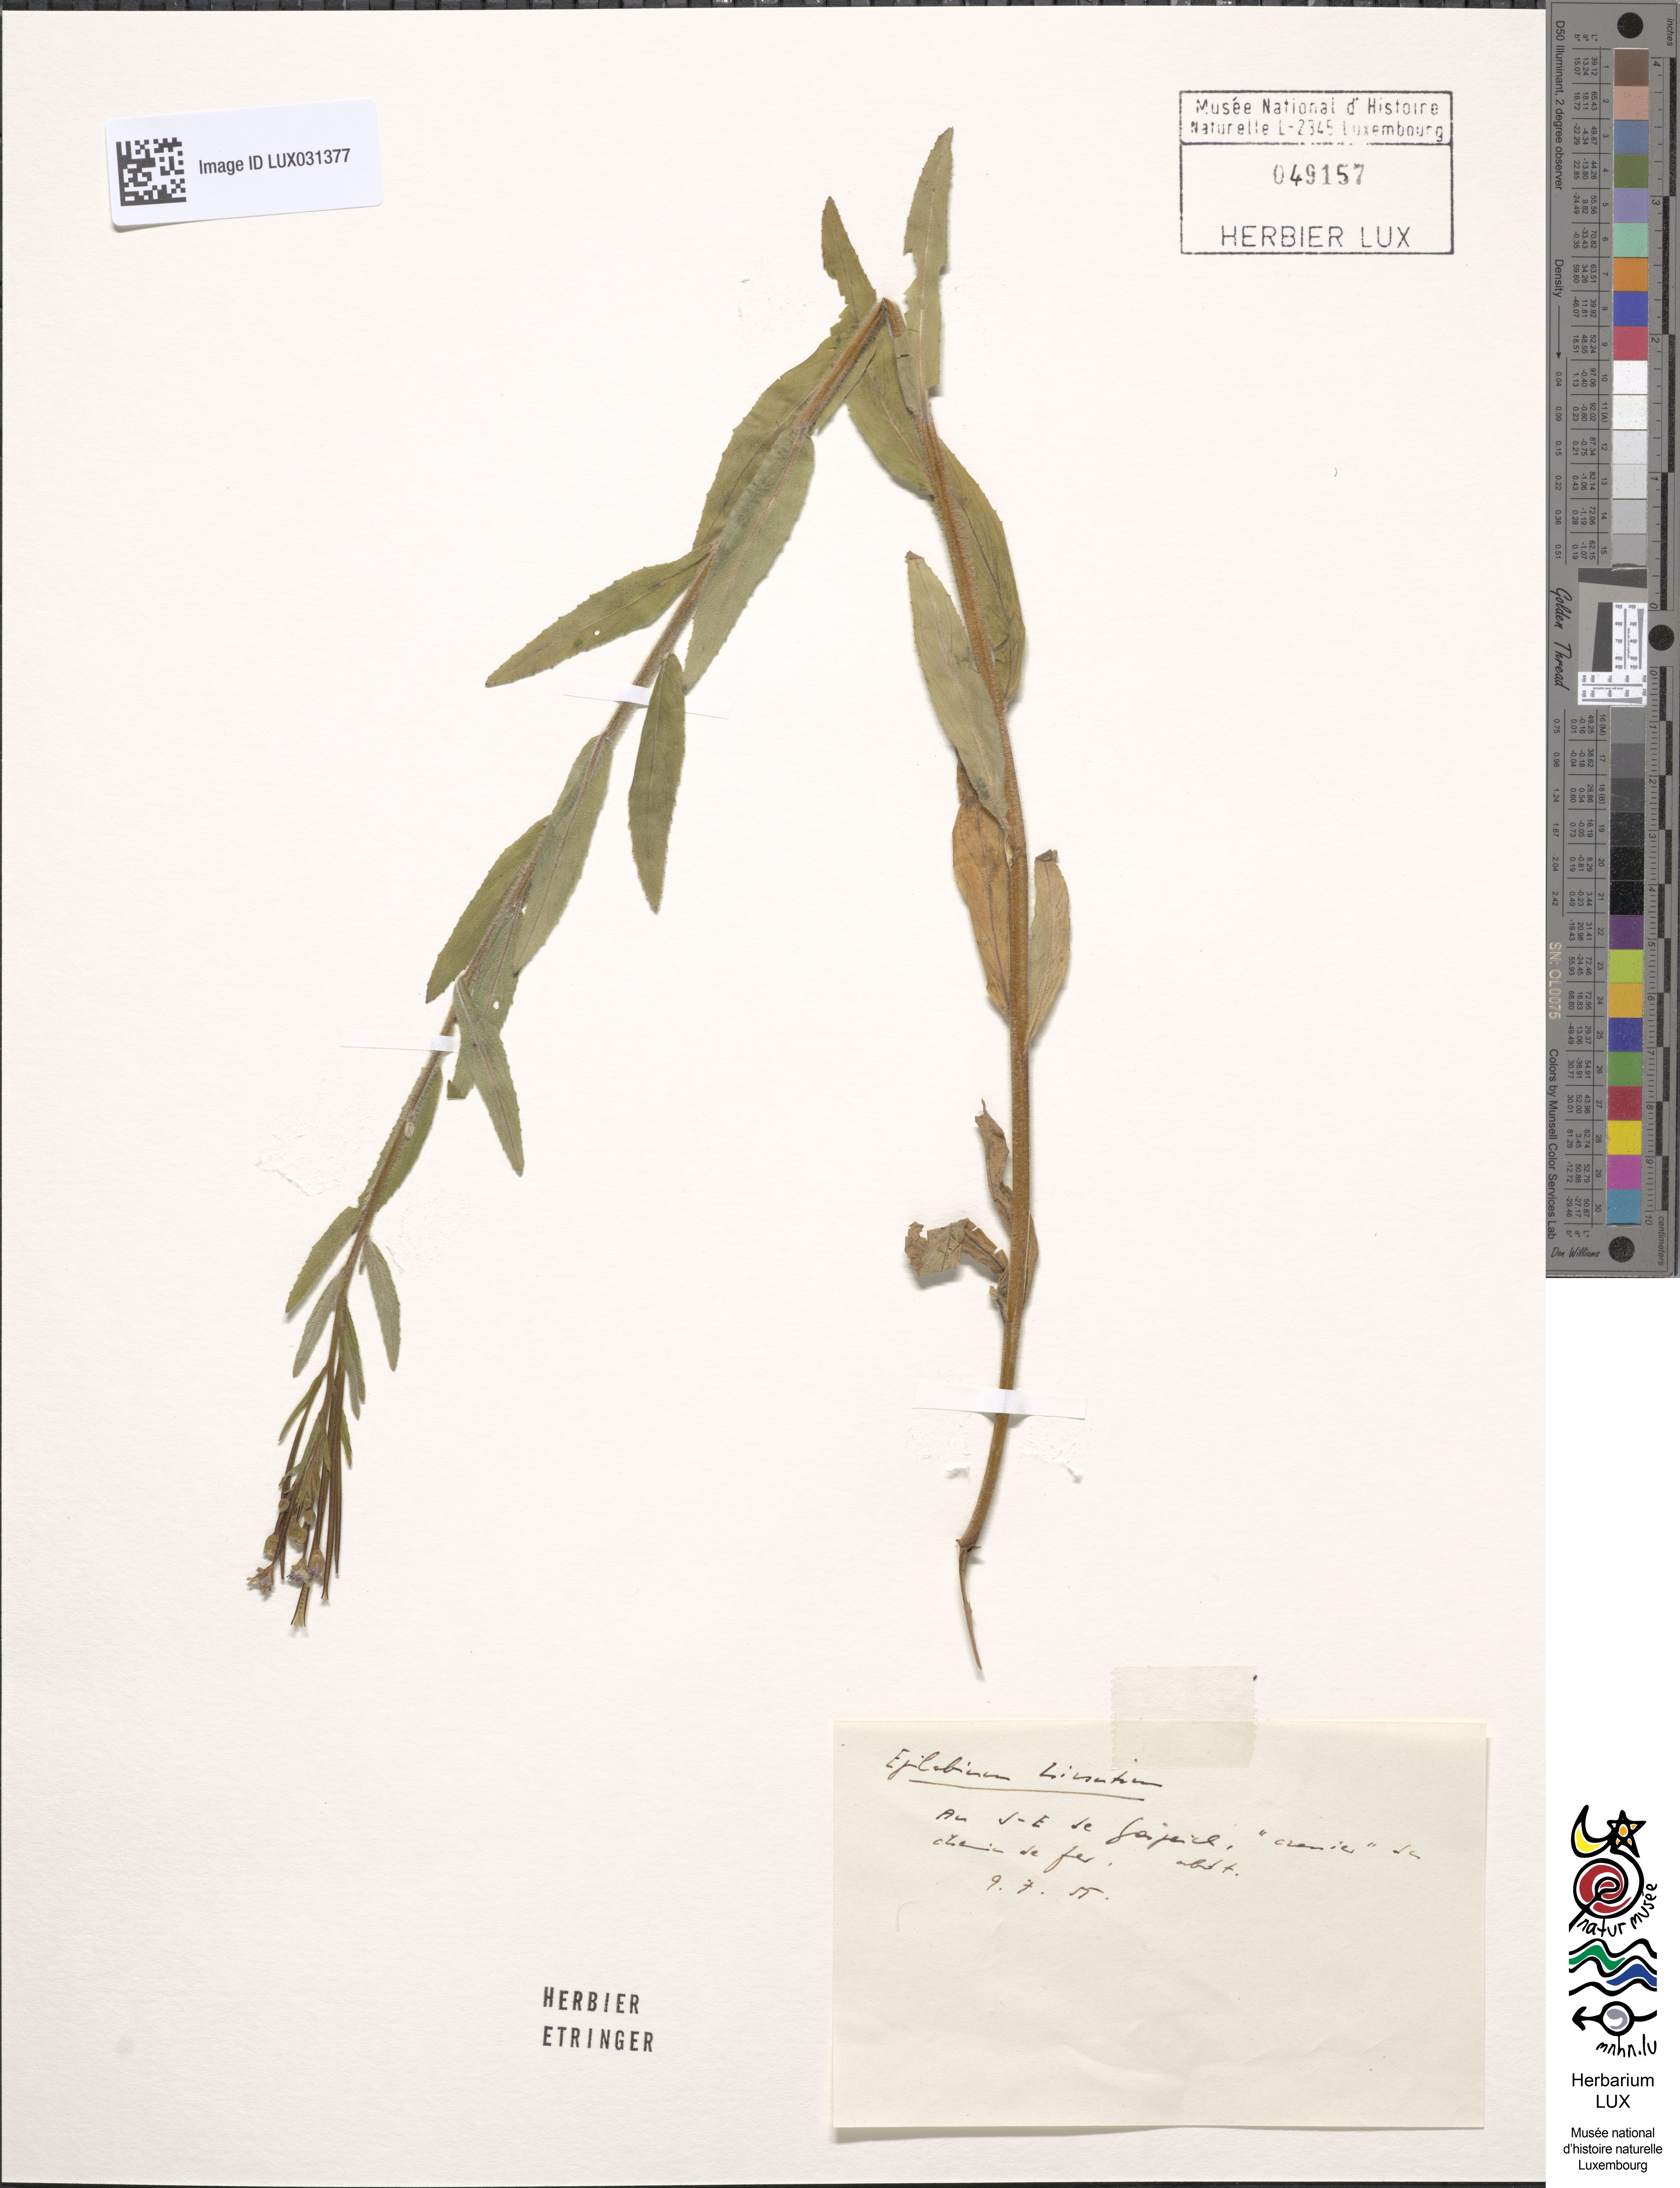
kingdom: Plantae
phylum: Tracheophyta
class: Magnoliopsida
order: Myrtales
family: Onagraceae
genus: Epilobium
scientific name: Epilobium hirsutum
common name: Great willowherb
